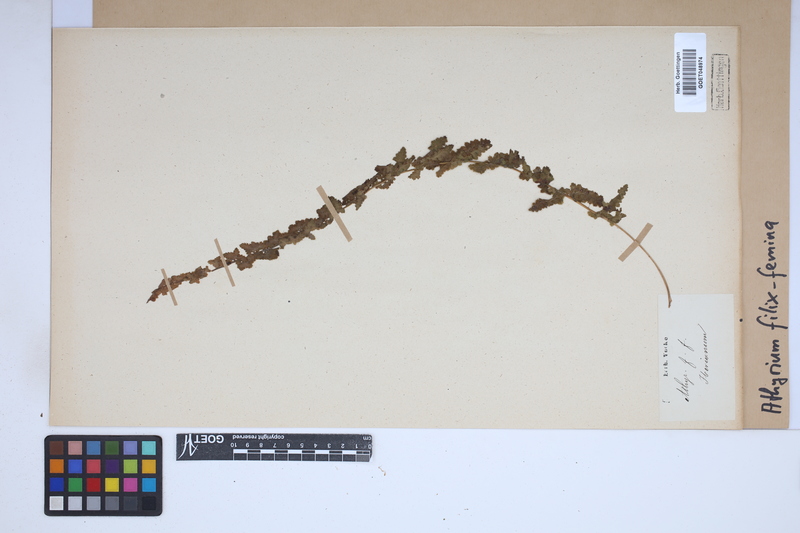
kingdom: Plantae
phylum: Tracheophyta
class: Polypodiopsida
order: Polypodiales
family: Athyriaceae
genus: Athyrium
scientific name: Athyrium filix-femina
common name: Lady fern
